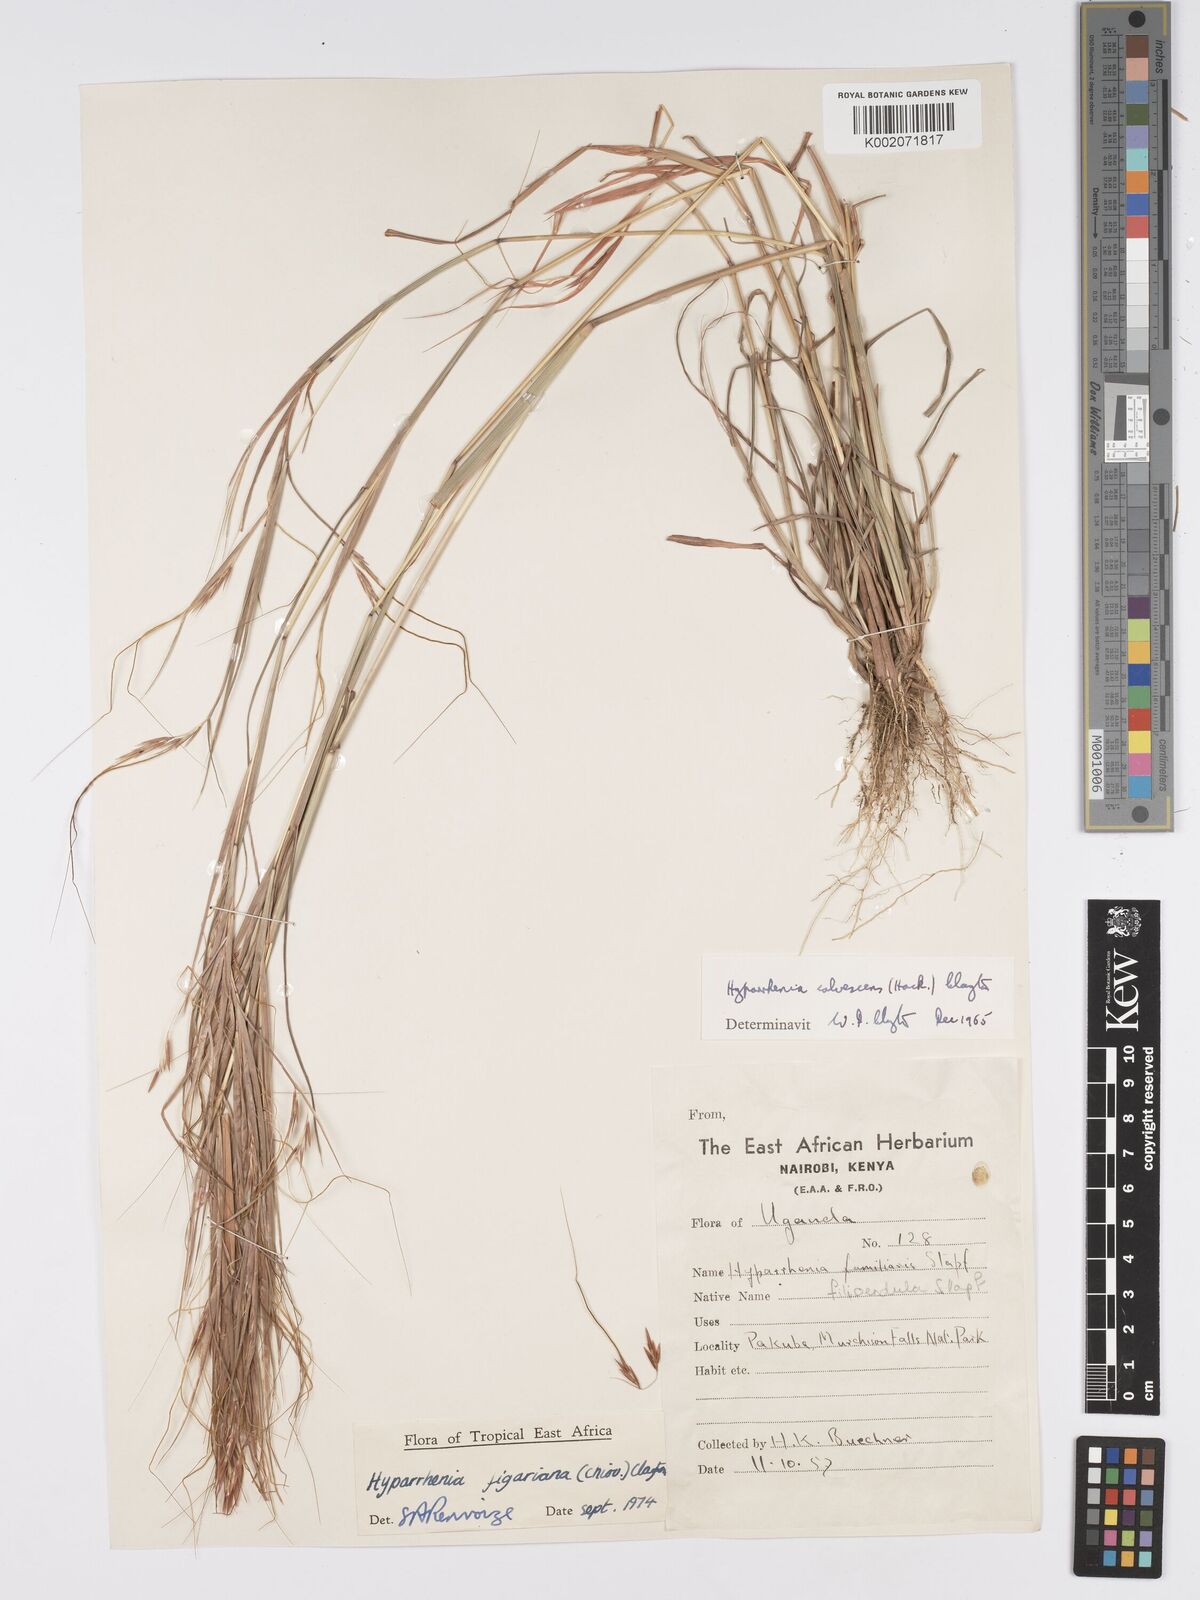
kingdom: Plantae
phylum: Tracheophyta
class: Liliopsida
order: Poales
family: Poaceae
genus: Hyparrhenia
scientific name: Hyparrhenia figariana
